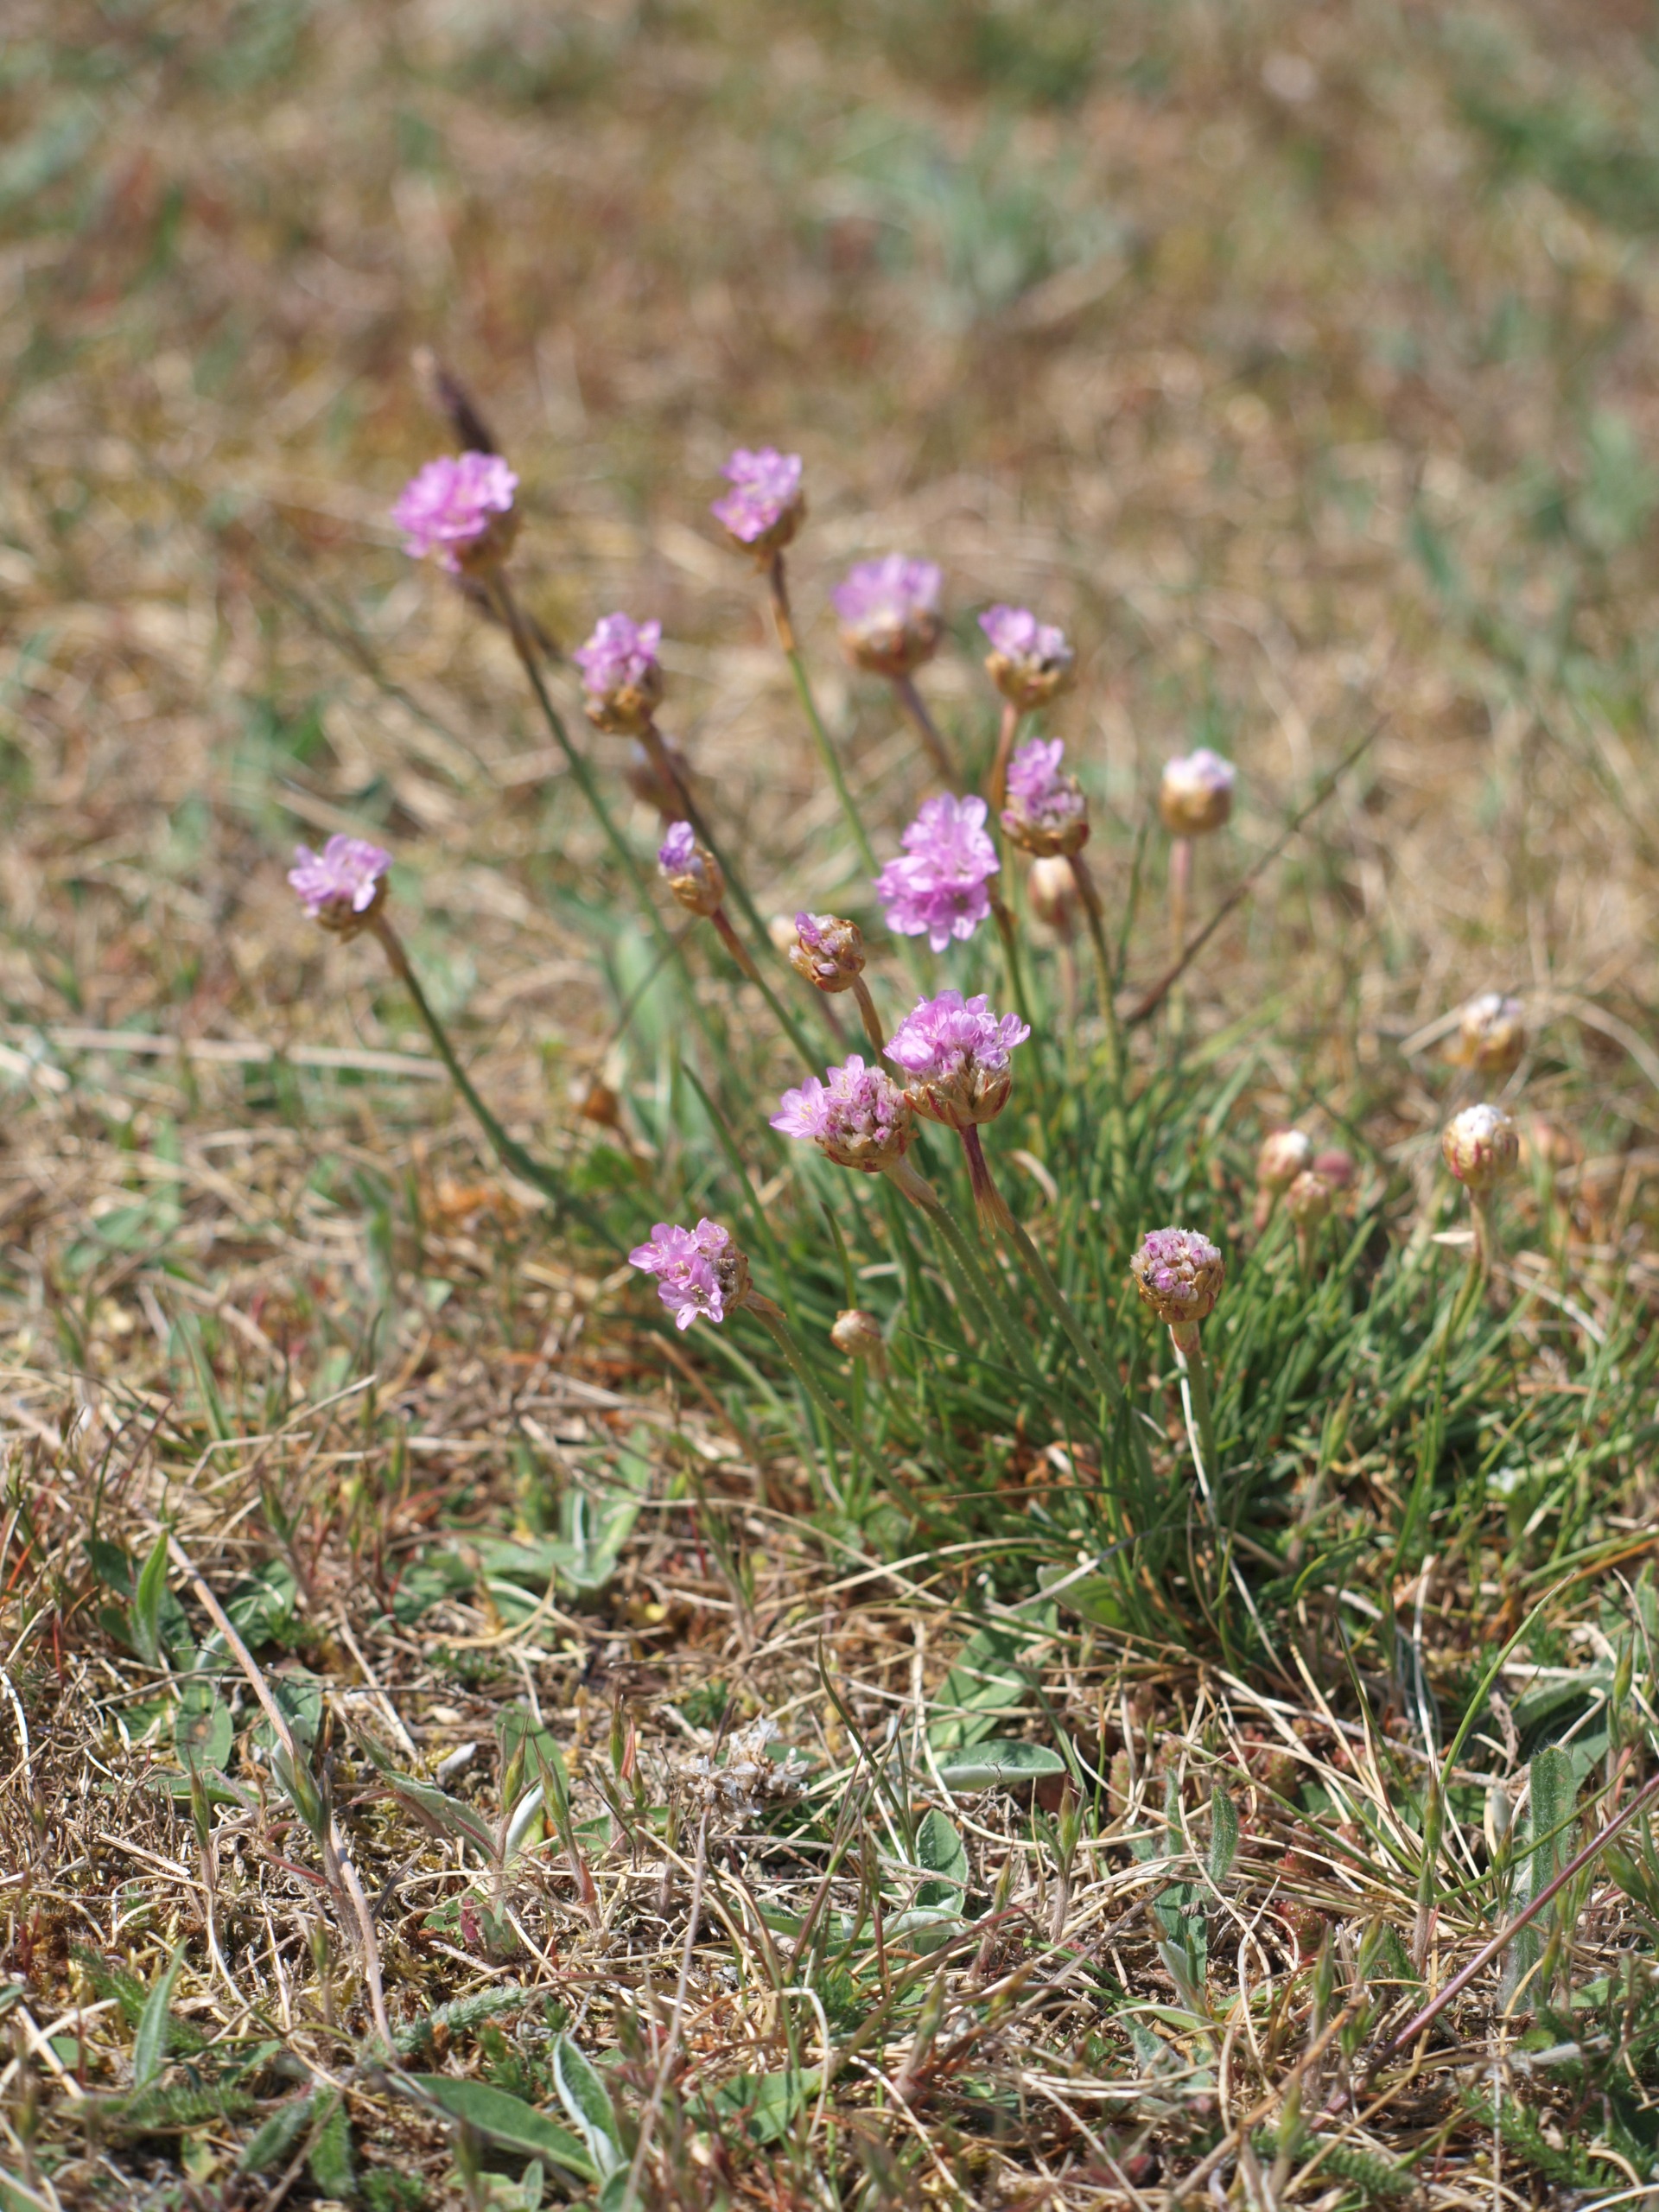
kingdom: Plantae
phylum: Tracheophyta
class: Magnoliopsida
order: Caryophyllales
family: Plumbaginaceae
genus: Armeria
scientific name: Armeria maritima
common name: Engelskgræs
